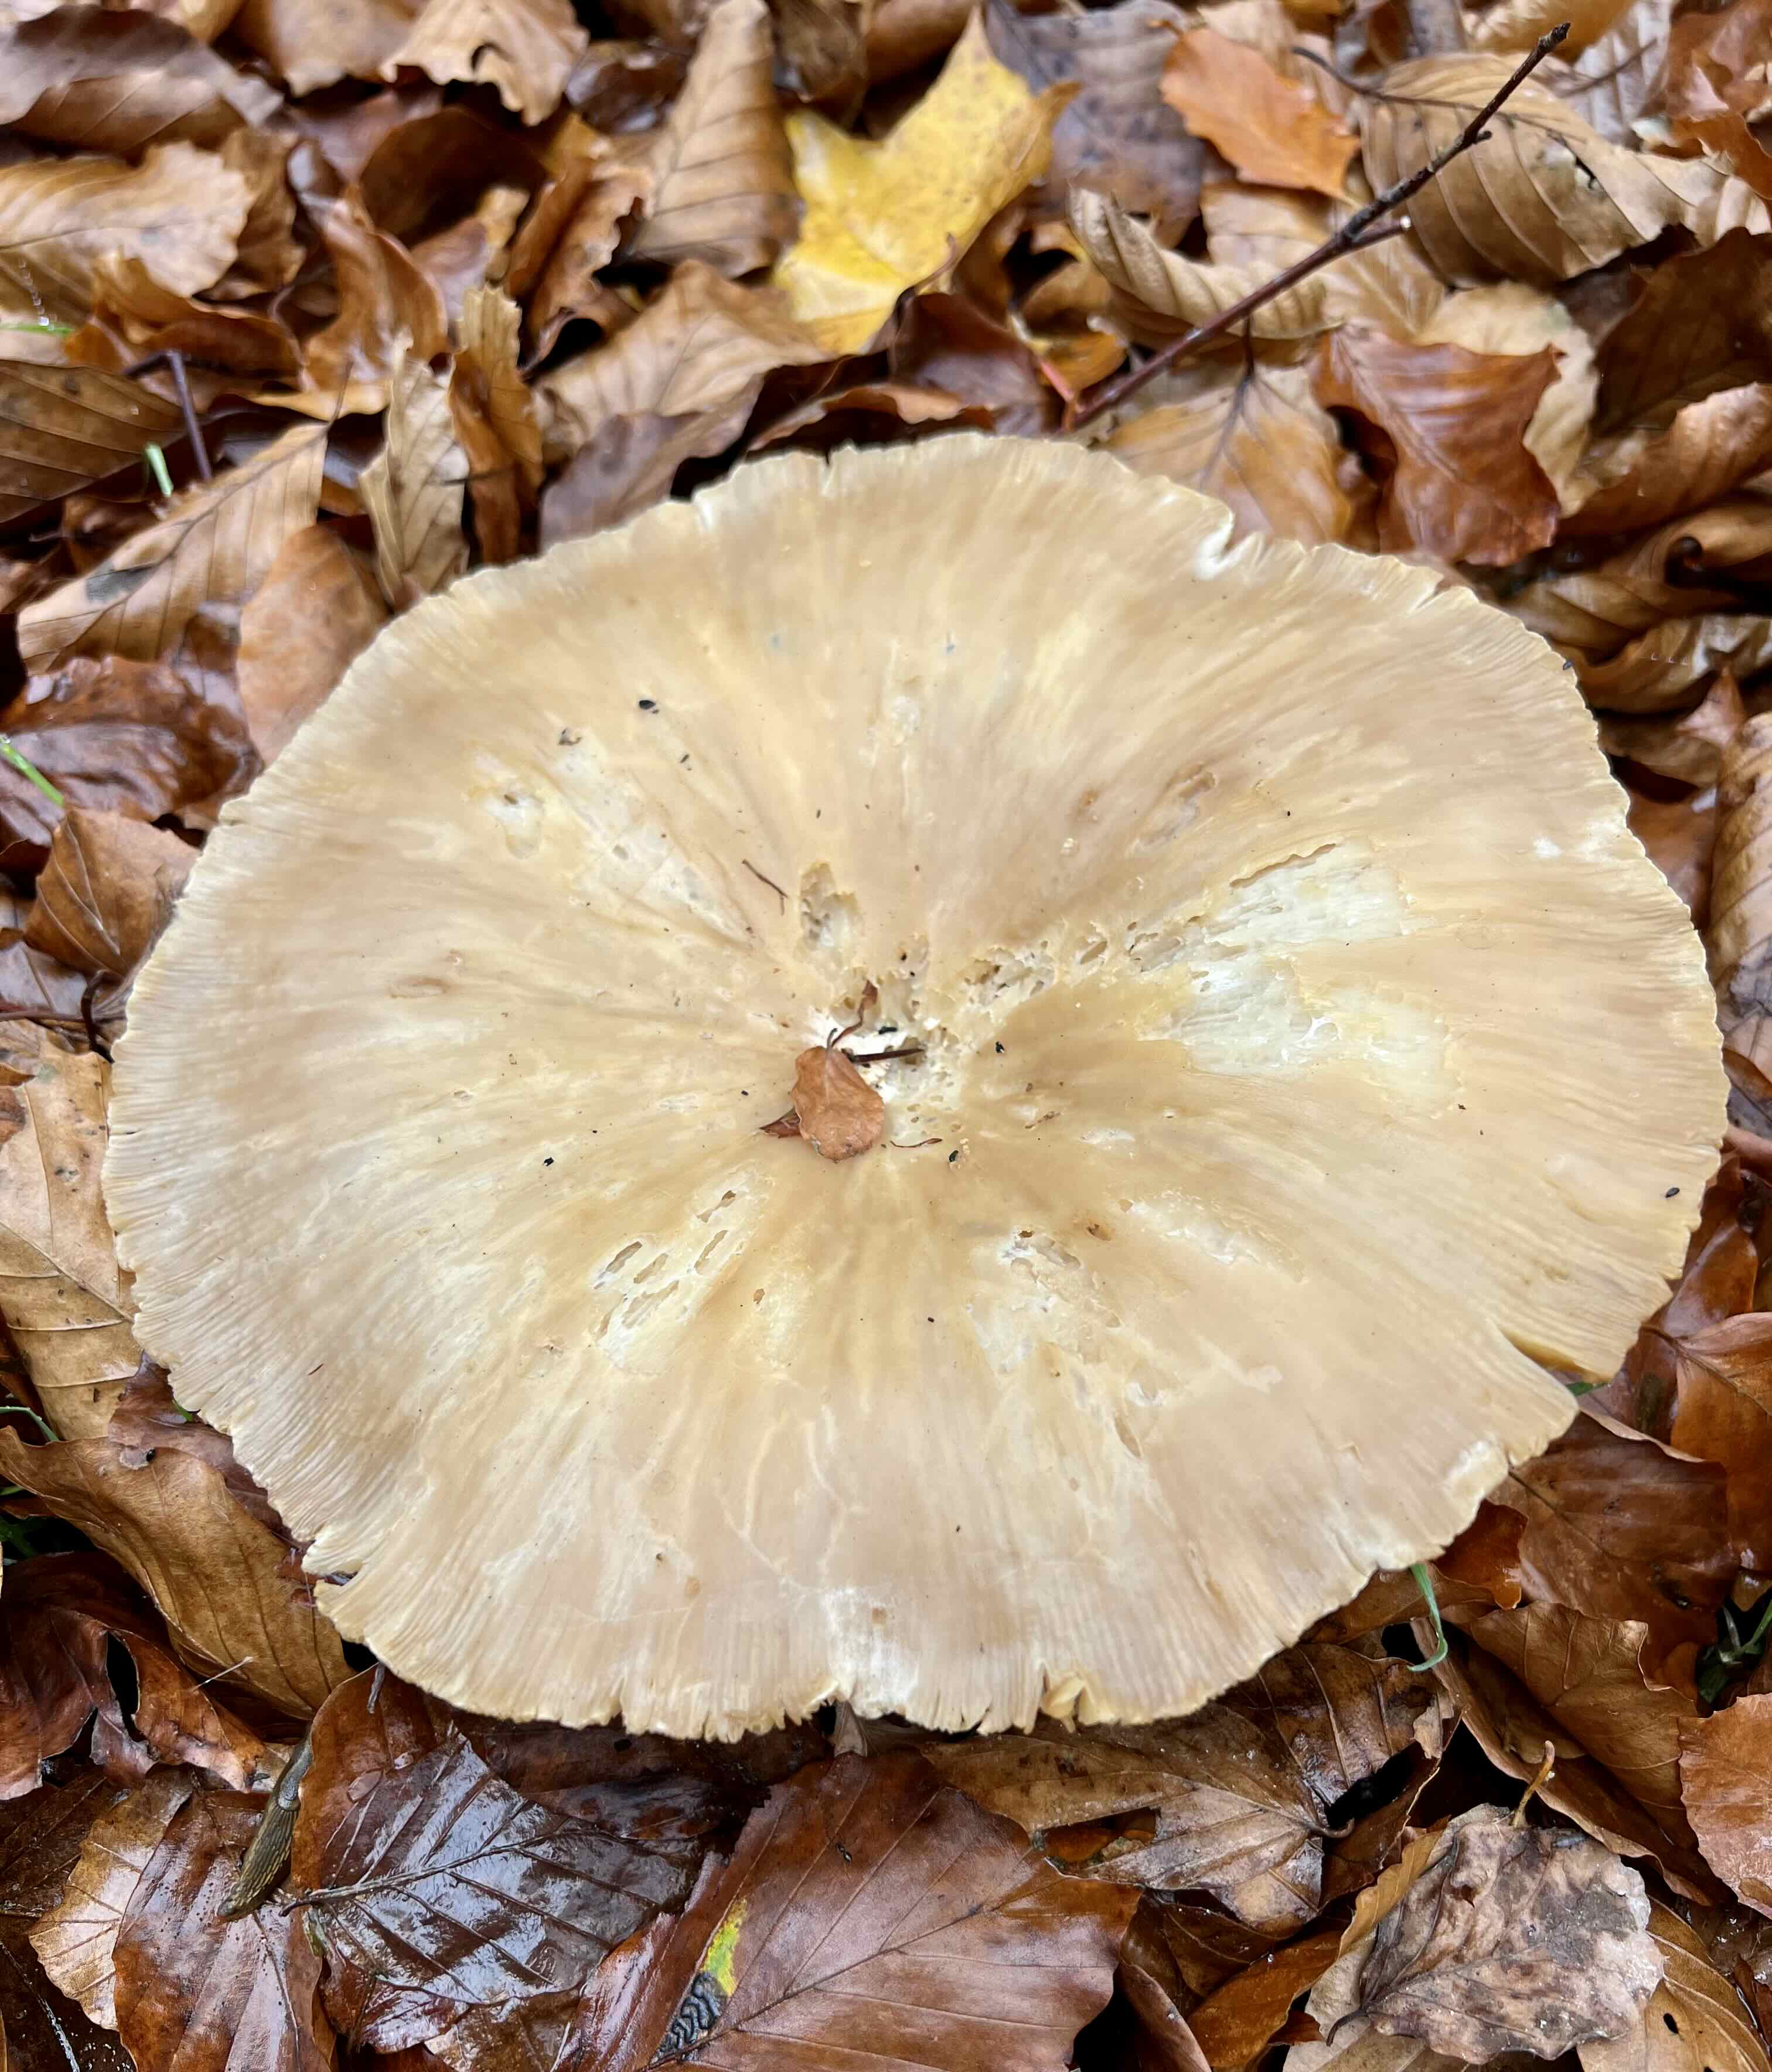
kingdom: Fungi
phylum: Basidiomycota
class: Agaricomycetes
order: Agaricales
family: Tricholomataceae
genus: Infundibulicybe
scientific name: Infundibulicybe geotropa
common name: stor tragthat
